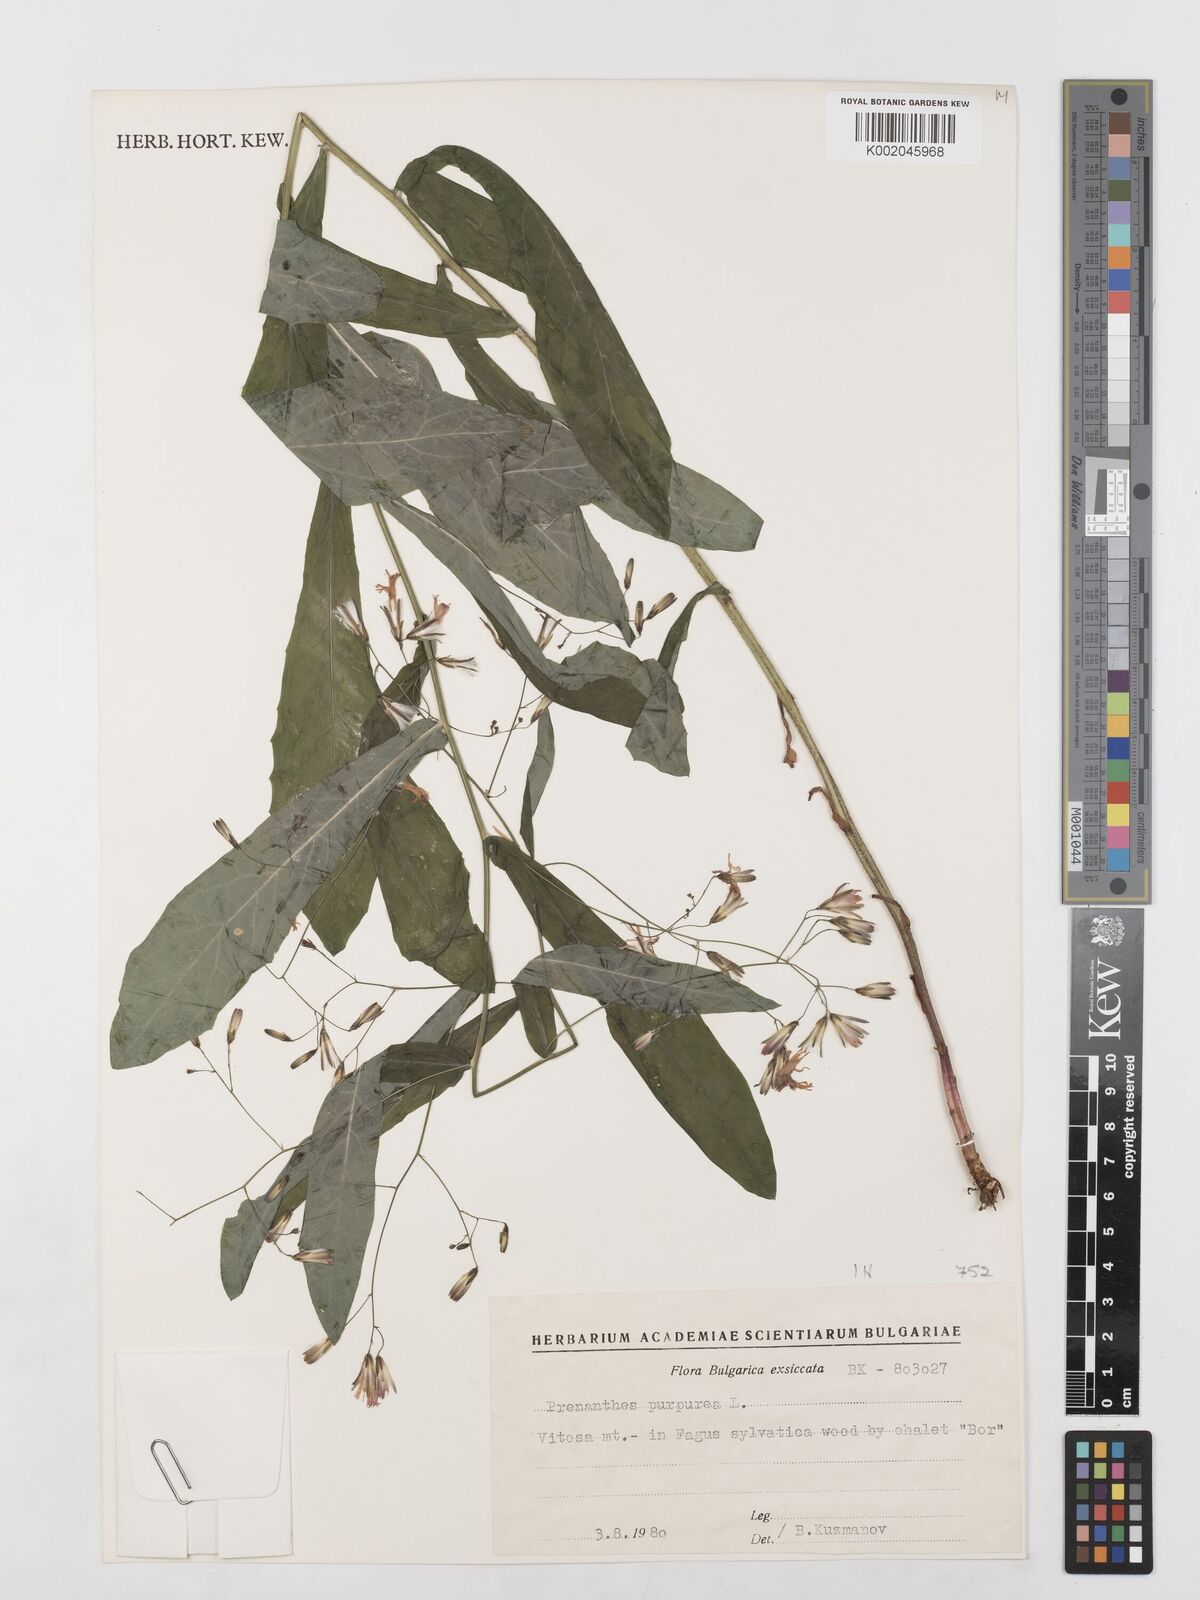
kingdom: Plantae
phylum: Tracheophyta
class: Magnoliopsida
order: Asterales
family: Asteraceae
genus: Prenanthes
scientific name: Prenanthes purpurea
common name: Purple lettuce
